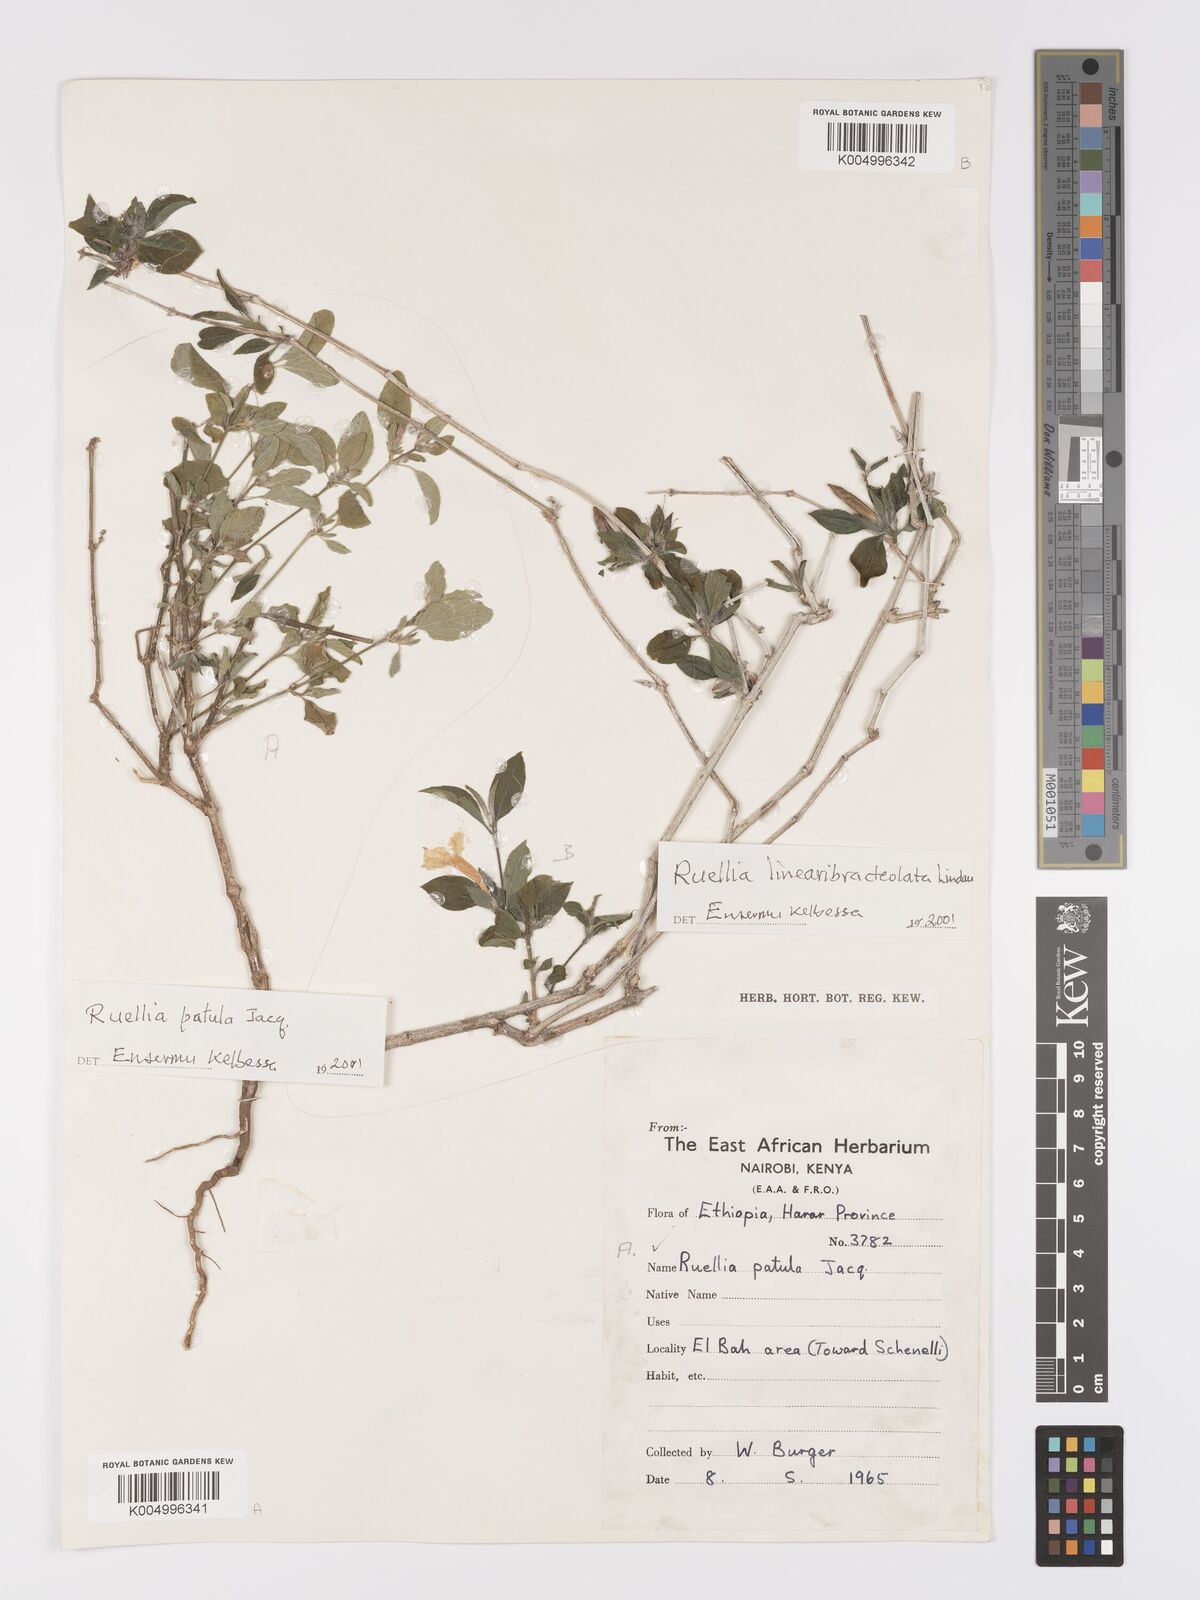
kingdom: Plantae
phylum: Tracheophyta
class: Magnoliopsida
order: Lamiales
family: Acanthaceae
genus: Ruellia
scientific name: Ruellia patula
